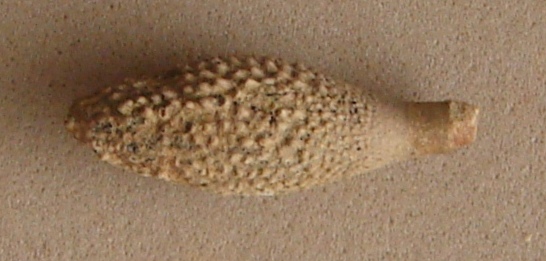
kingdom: Animalia
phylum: Echinodermata
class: Echinoidea
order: Cidaroida
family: Psychocidaridae
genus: Caenocidaris
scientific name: Caenocidaris
